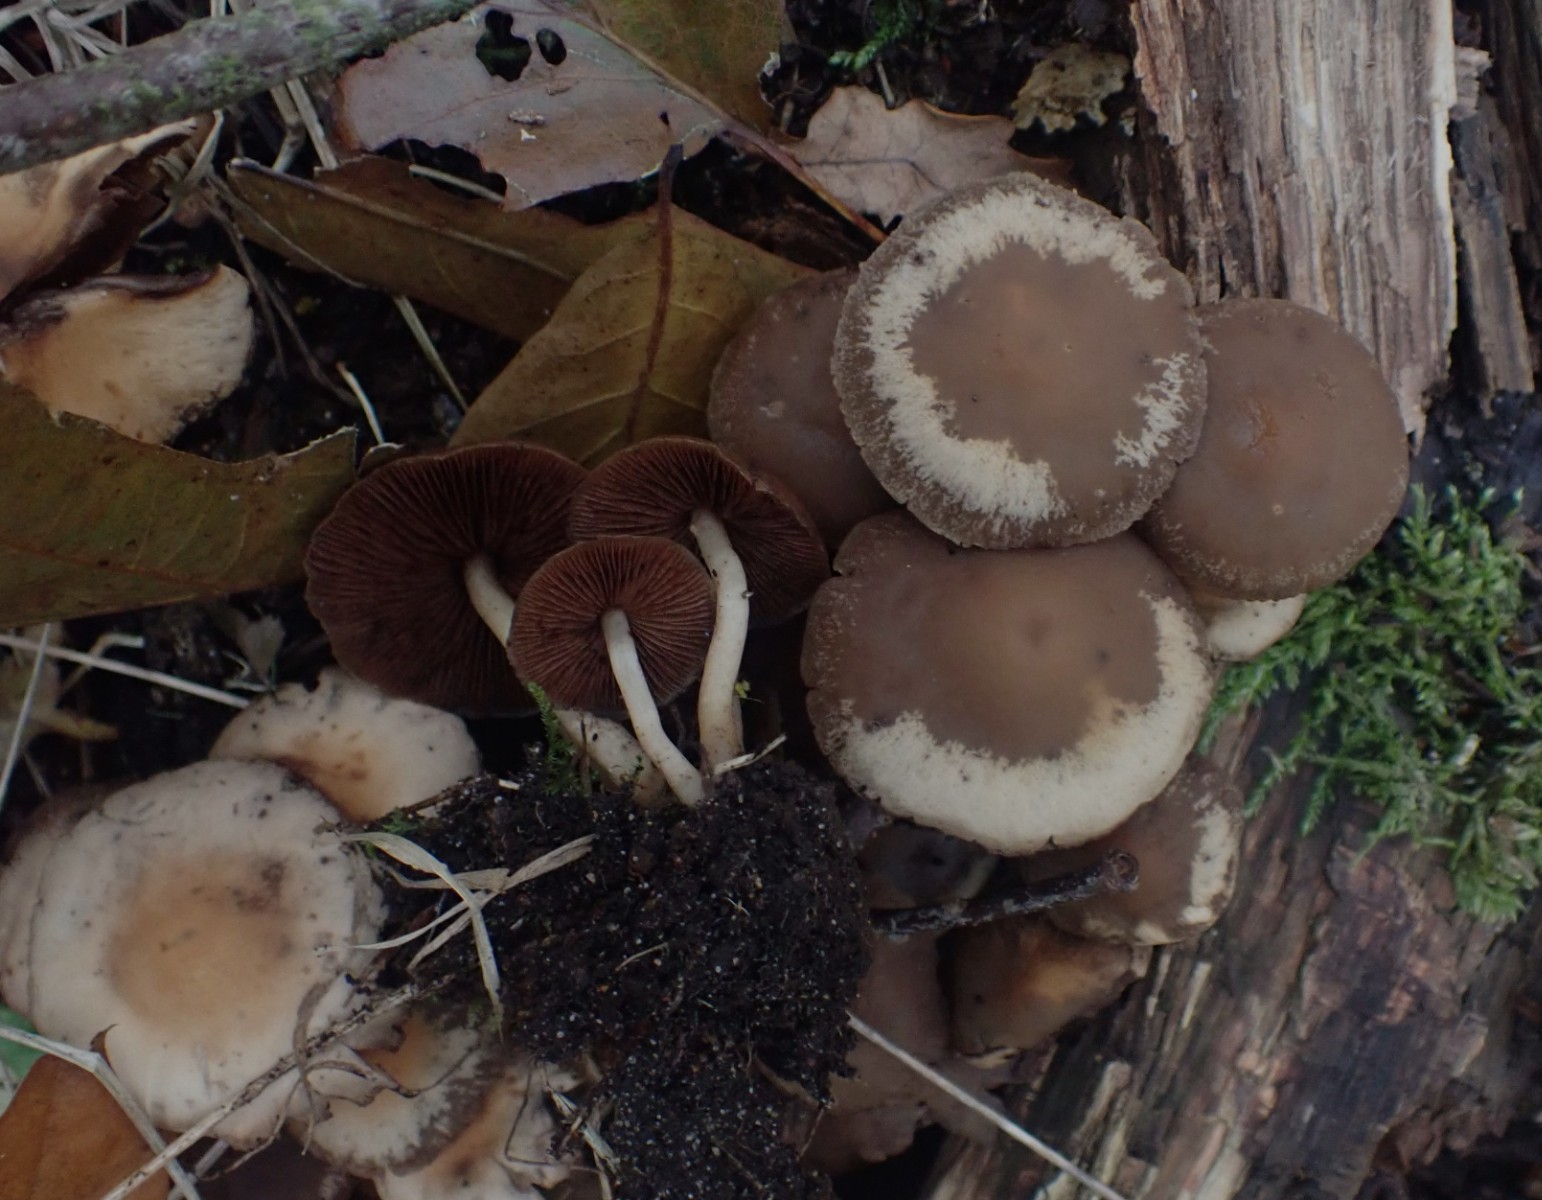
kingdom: Fungi
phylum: Basidiomycota
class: Agaricomycetes
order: Agaricales
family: Psathyrellaceae
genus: Psathyrella
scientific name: Psathyrella piluliformis
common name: lysstokket mørkhat
